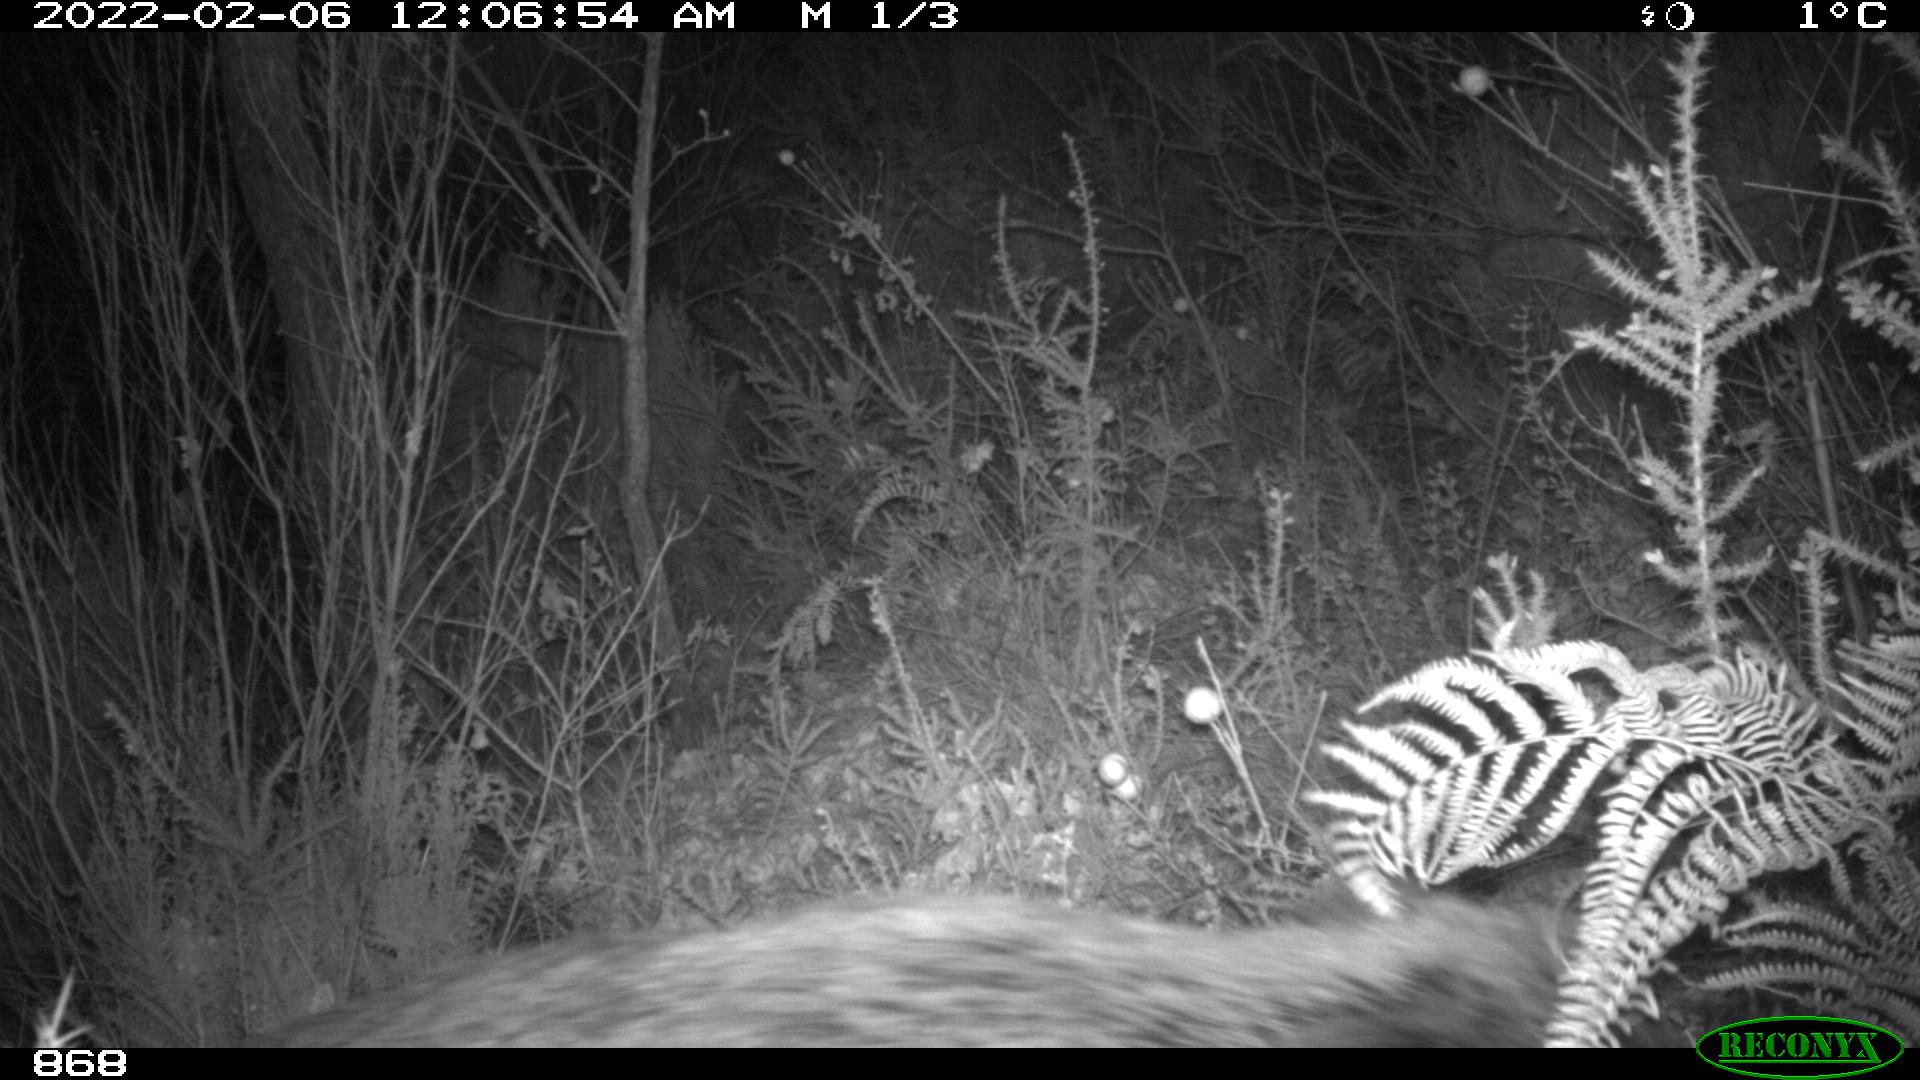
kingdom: Animalia
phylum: Chordata
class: Mammalia
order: Artiodactyla
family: Suidae
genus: Sus
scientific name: Sus scrofa
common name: Wild boar
